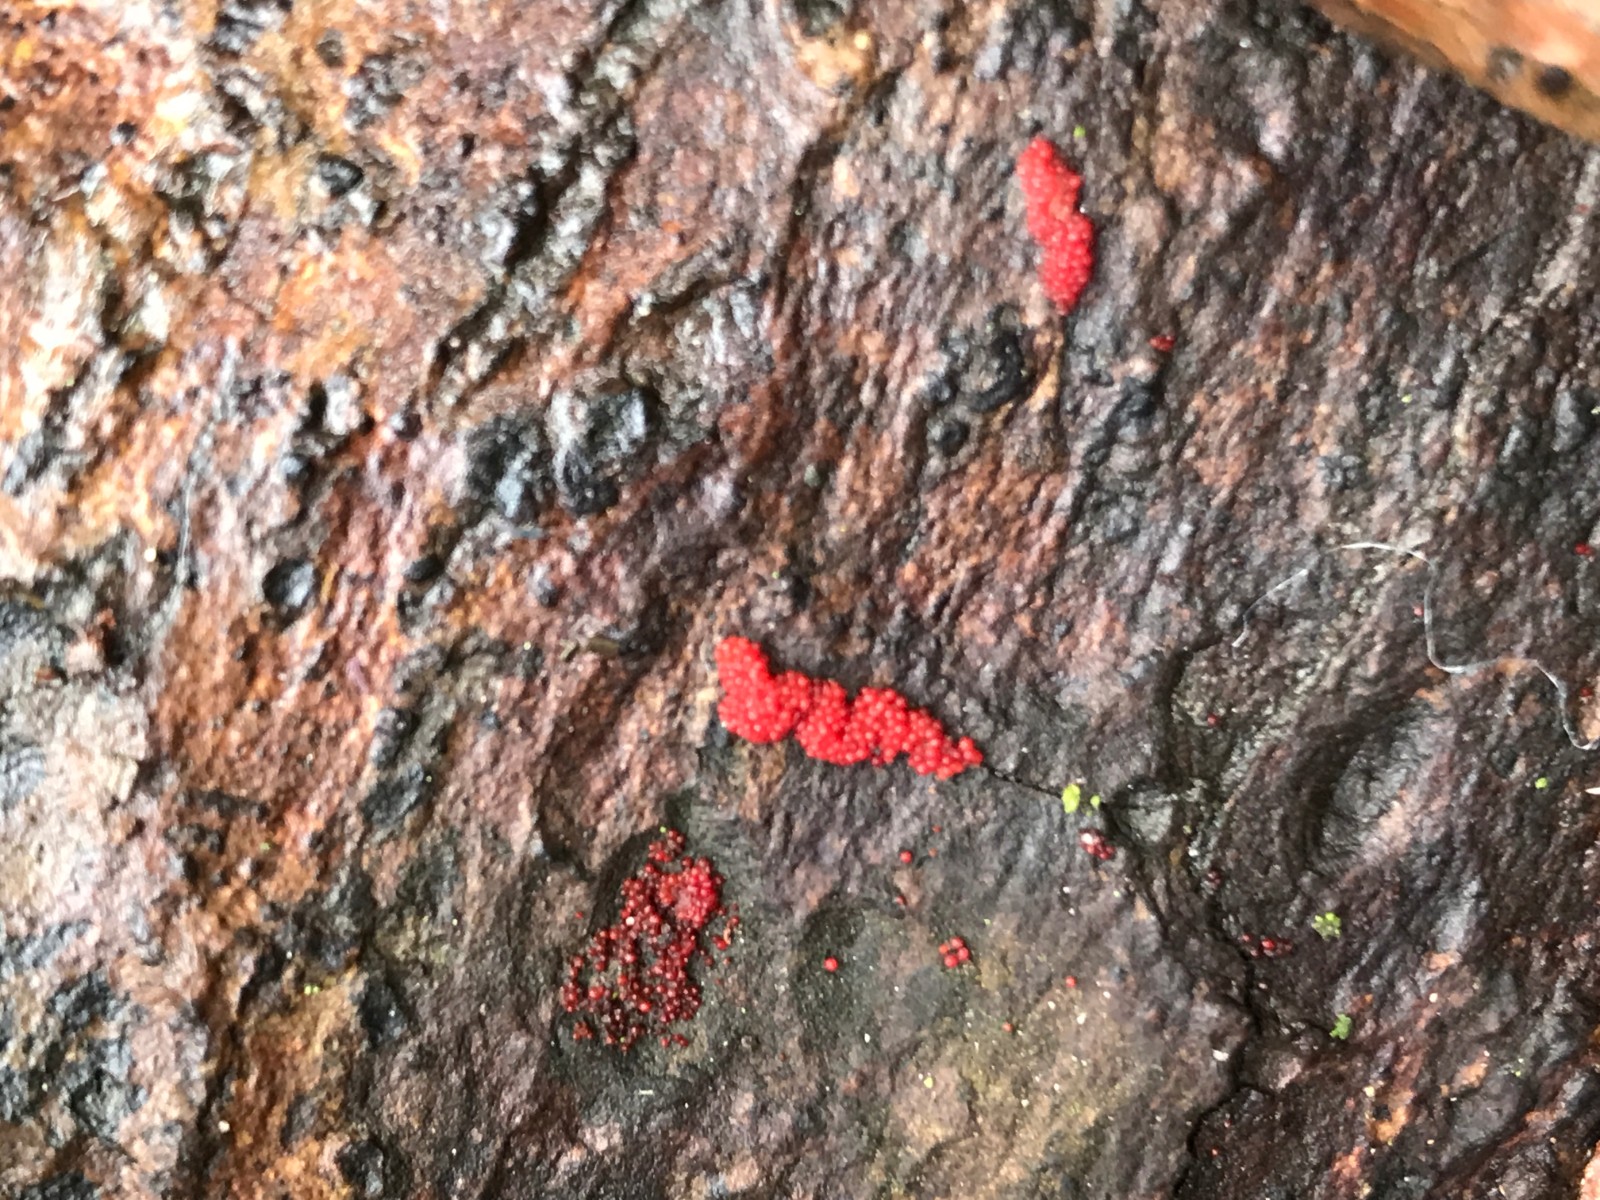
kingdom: Fungi
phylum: Ascomycota
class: Sordariomycetes
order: Hypocreales
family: Nectriaceae
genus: Neonectria
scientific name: Neonectria
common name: cinnobersvamp
